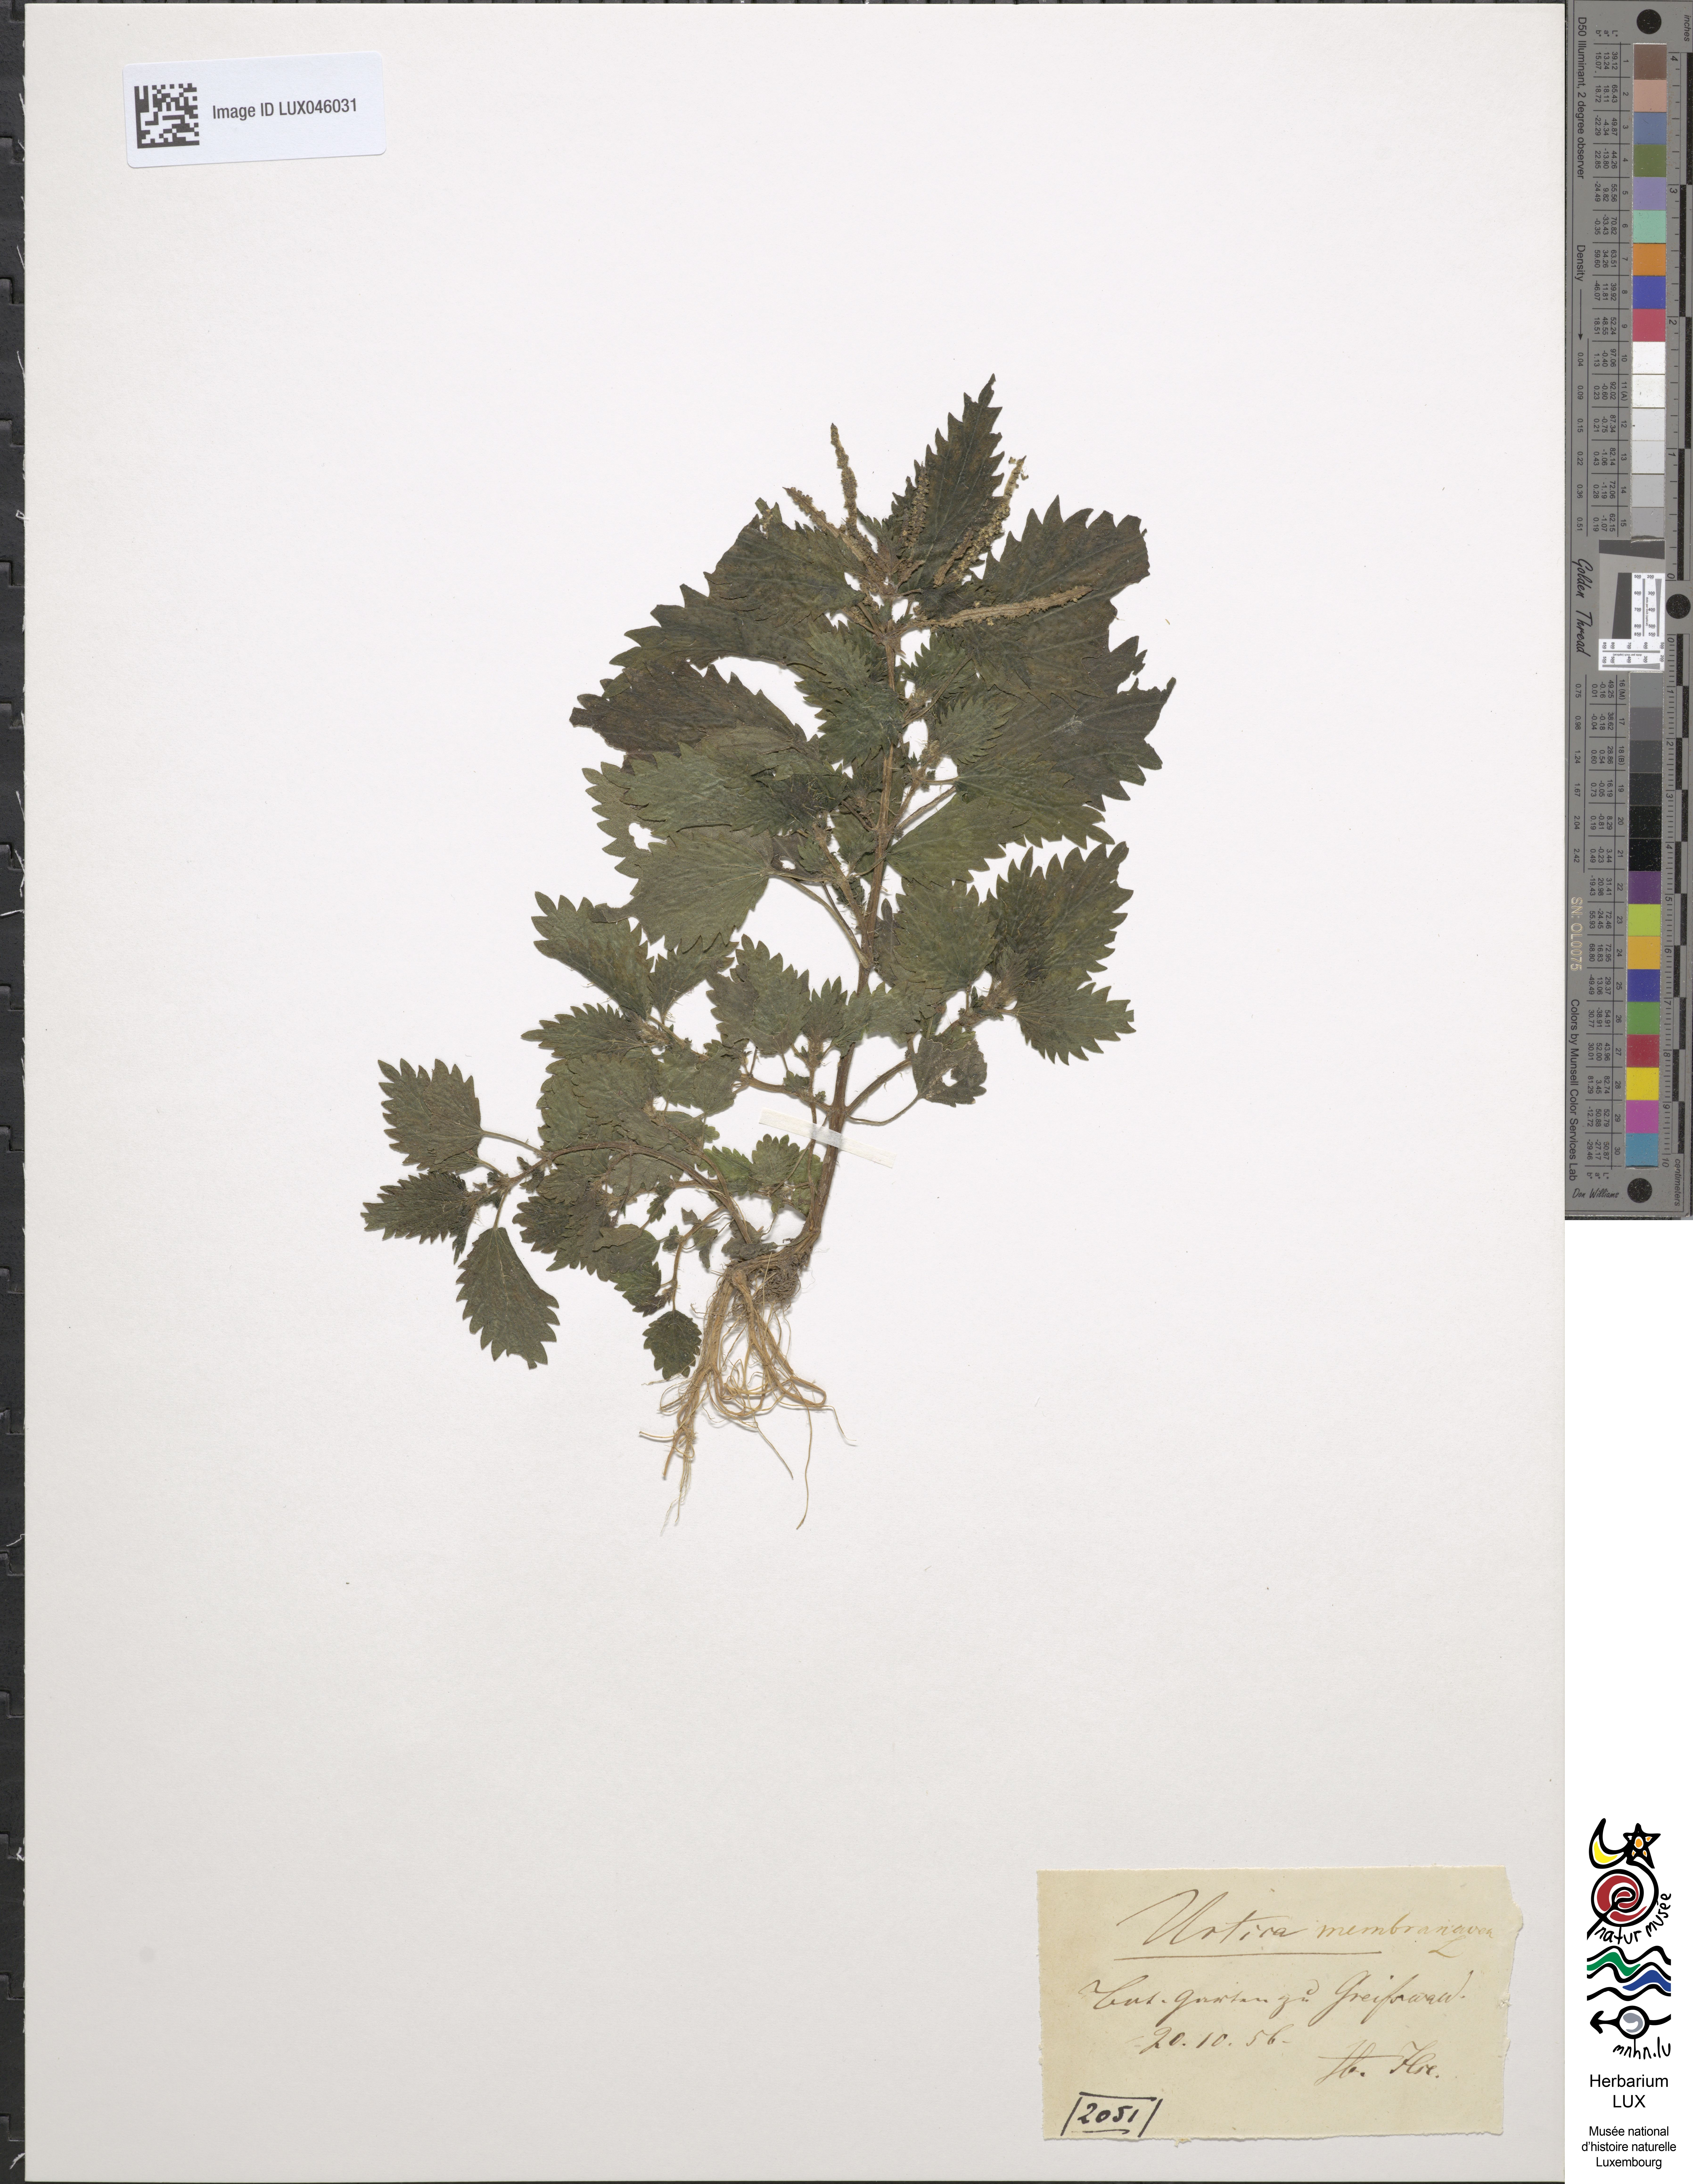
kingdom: Plantae
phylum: Tracheophyta
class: Magnoliopsida
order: Rosales
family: Urticaceae
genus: Urtica
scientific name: Urtica membranacea
